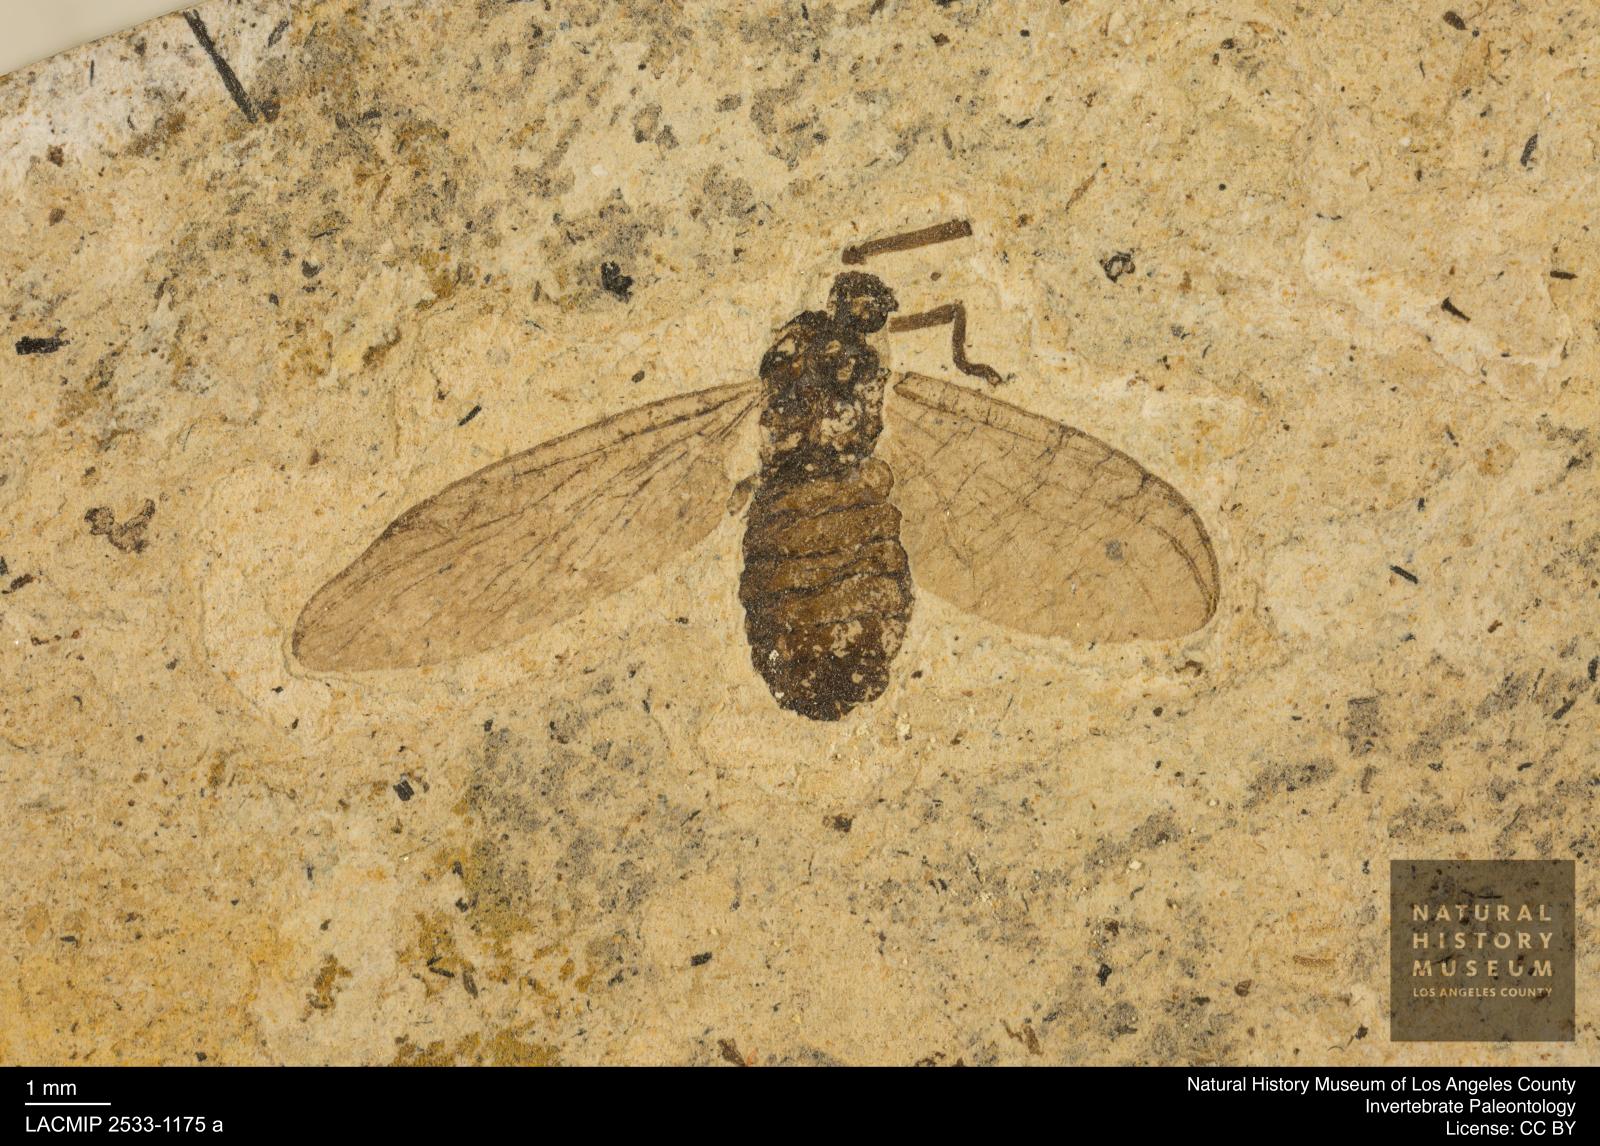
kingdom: Animalia
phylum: Arthropoda
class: Insecta
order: Diptera
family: Bibionidae
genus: Plecia
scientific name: Plecia stygia
